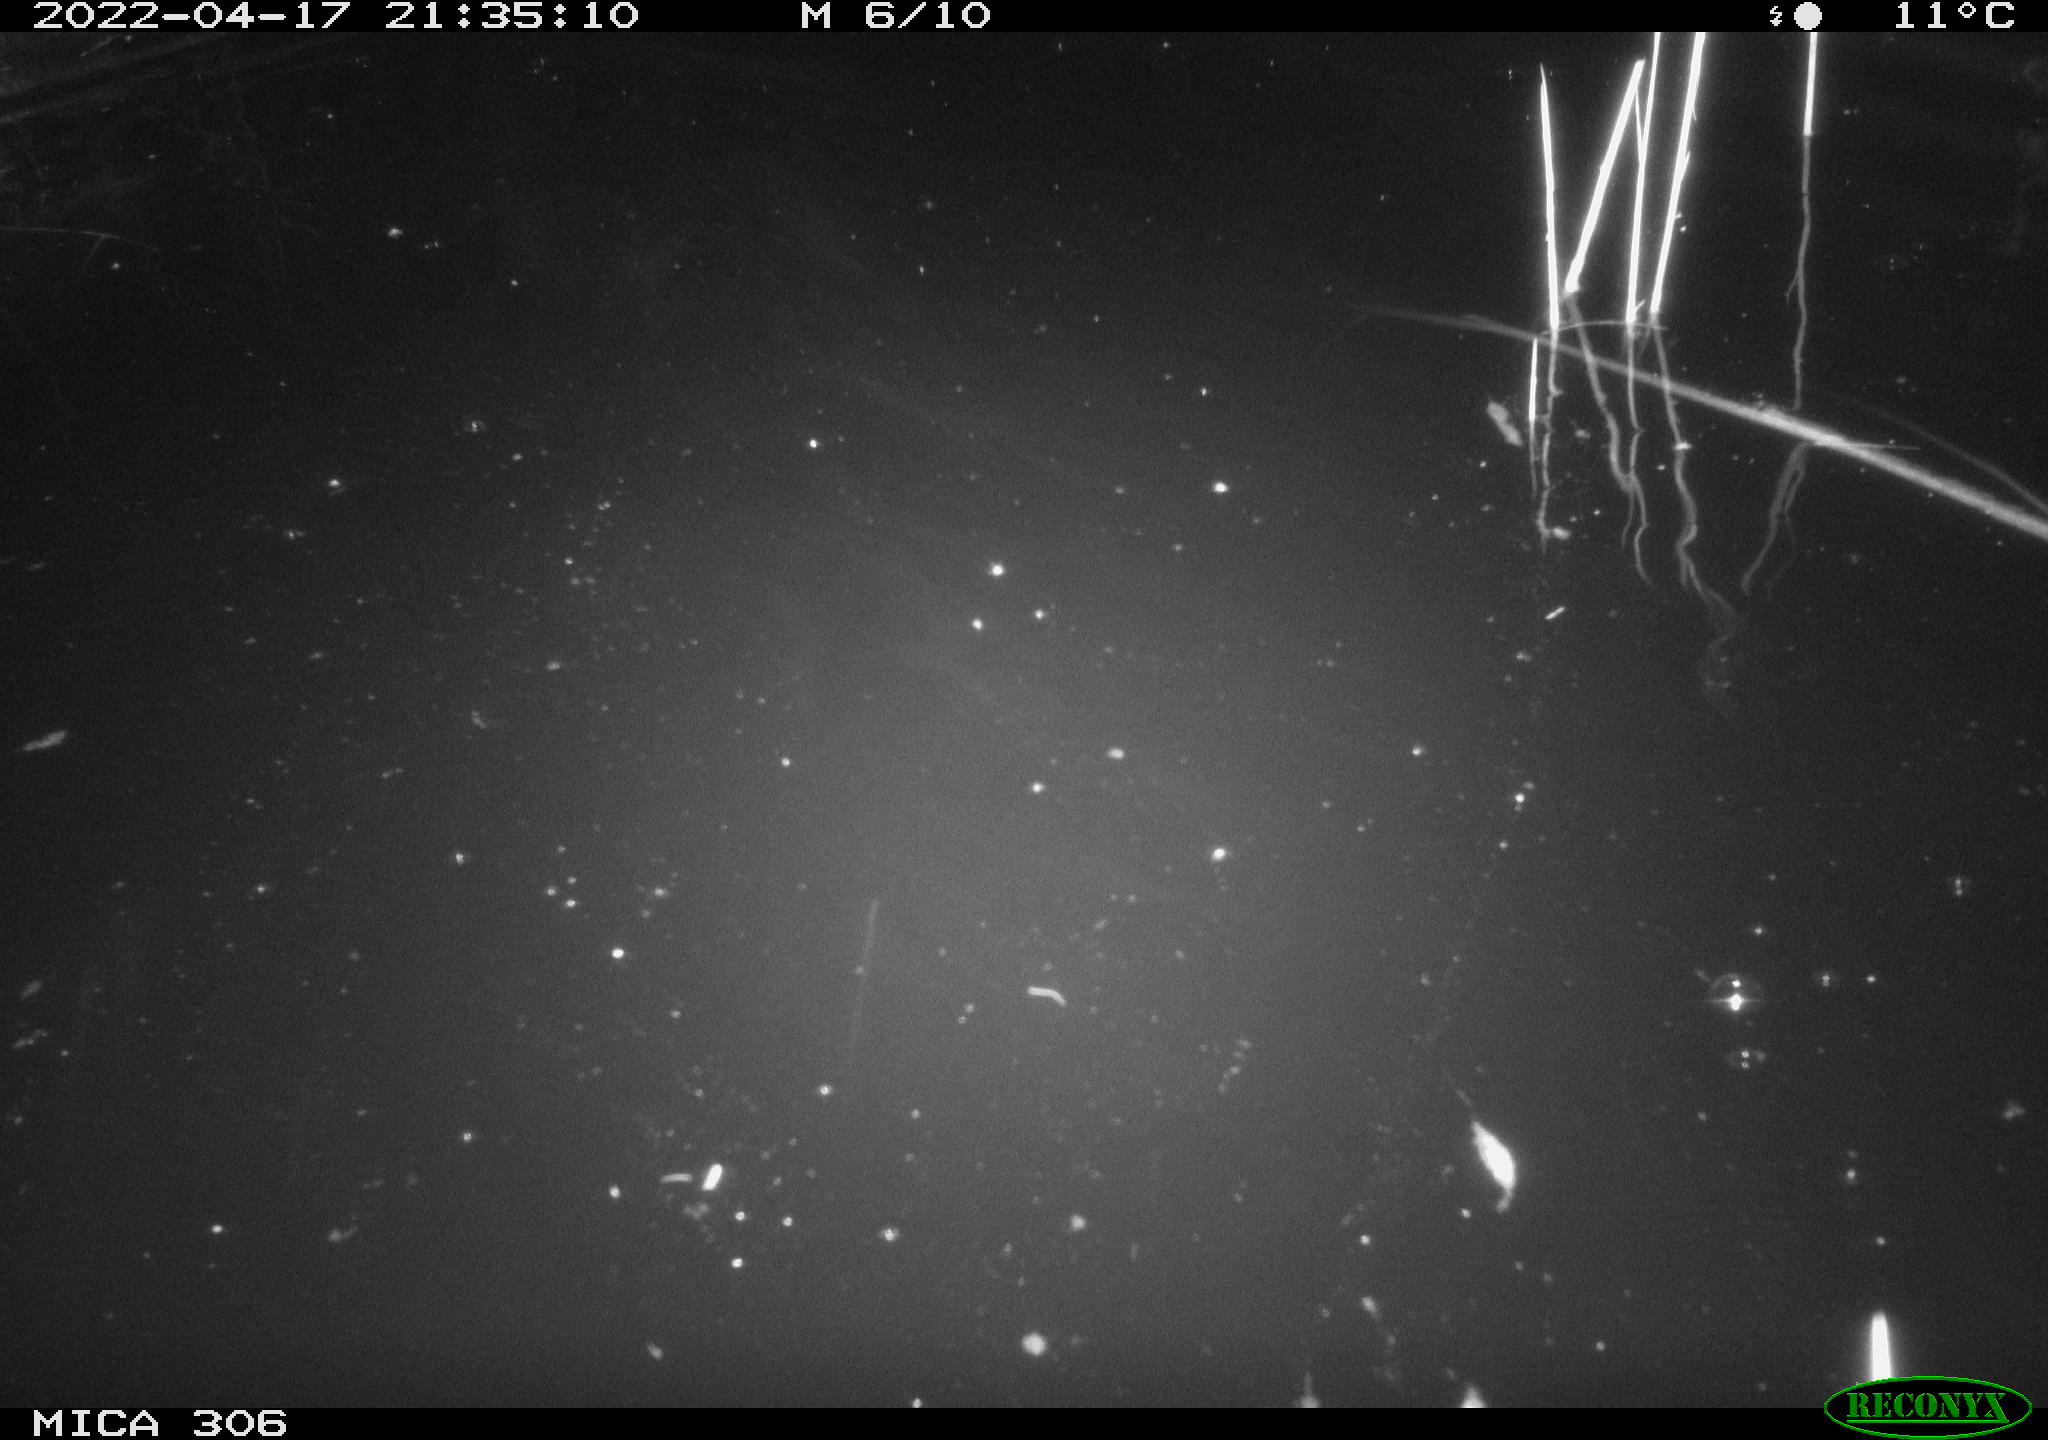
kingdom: Animalia
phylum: Chordata
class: Aves
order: Anseriformes
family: Anatidae
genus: Anas
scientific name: Anas platyrhynchos
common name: Mallard
